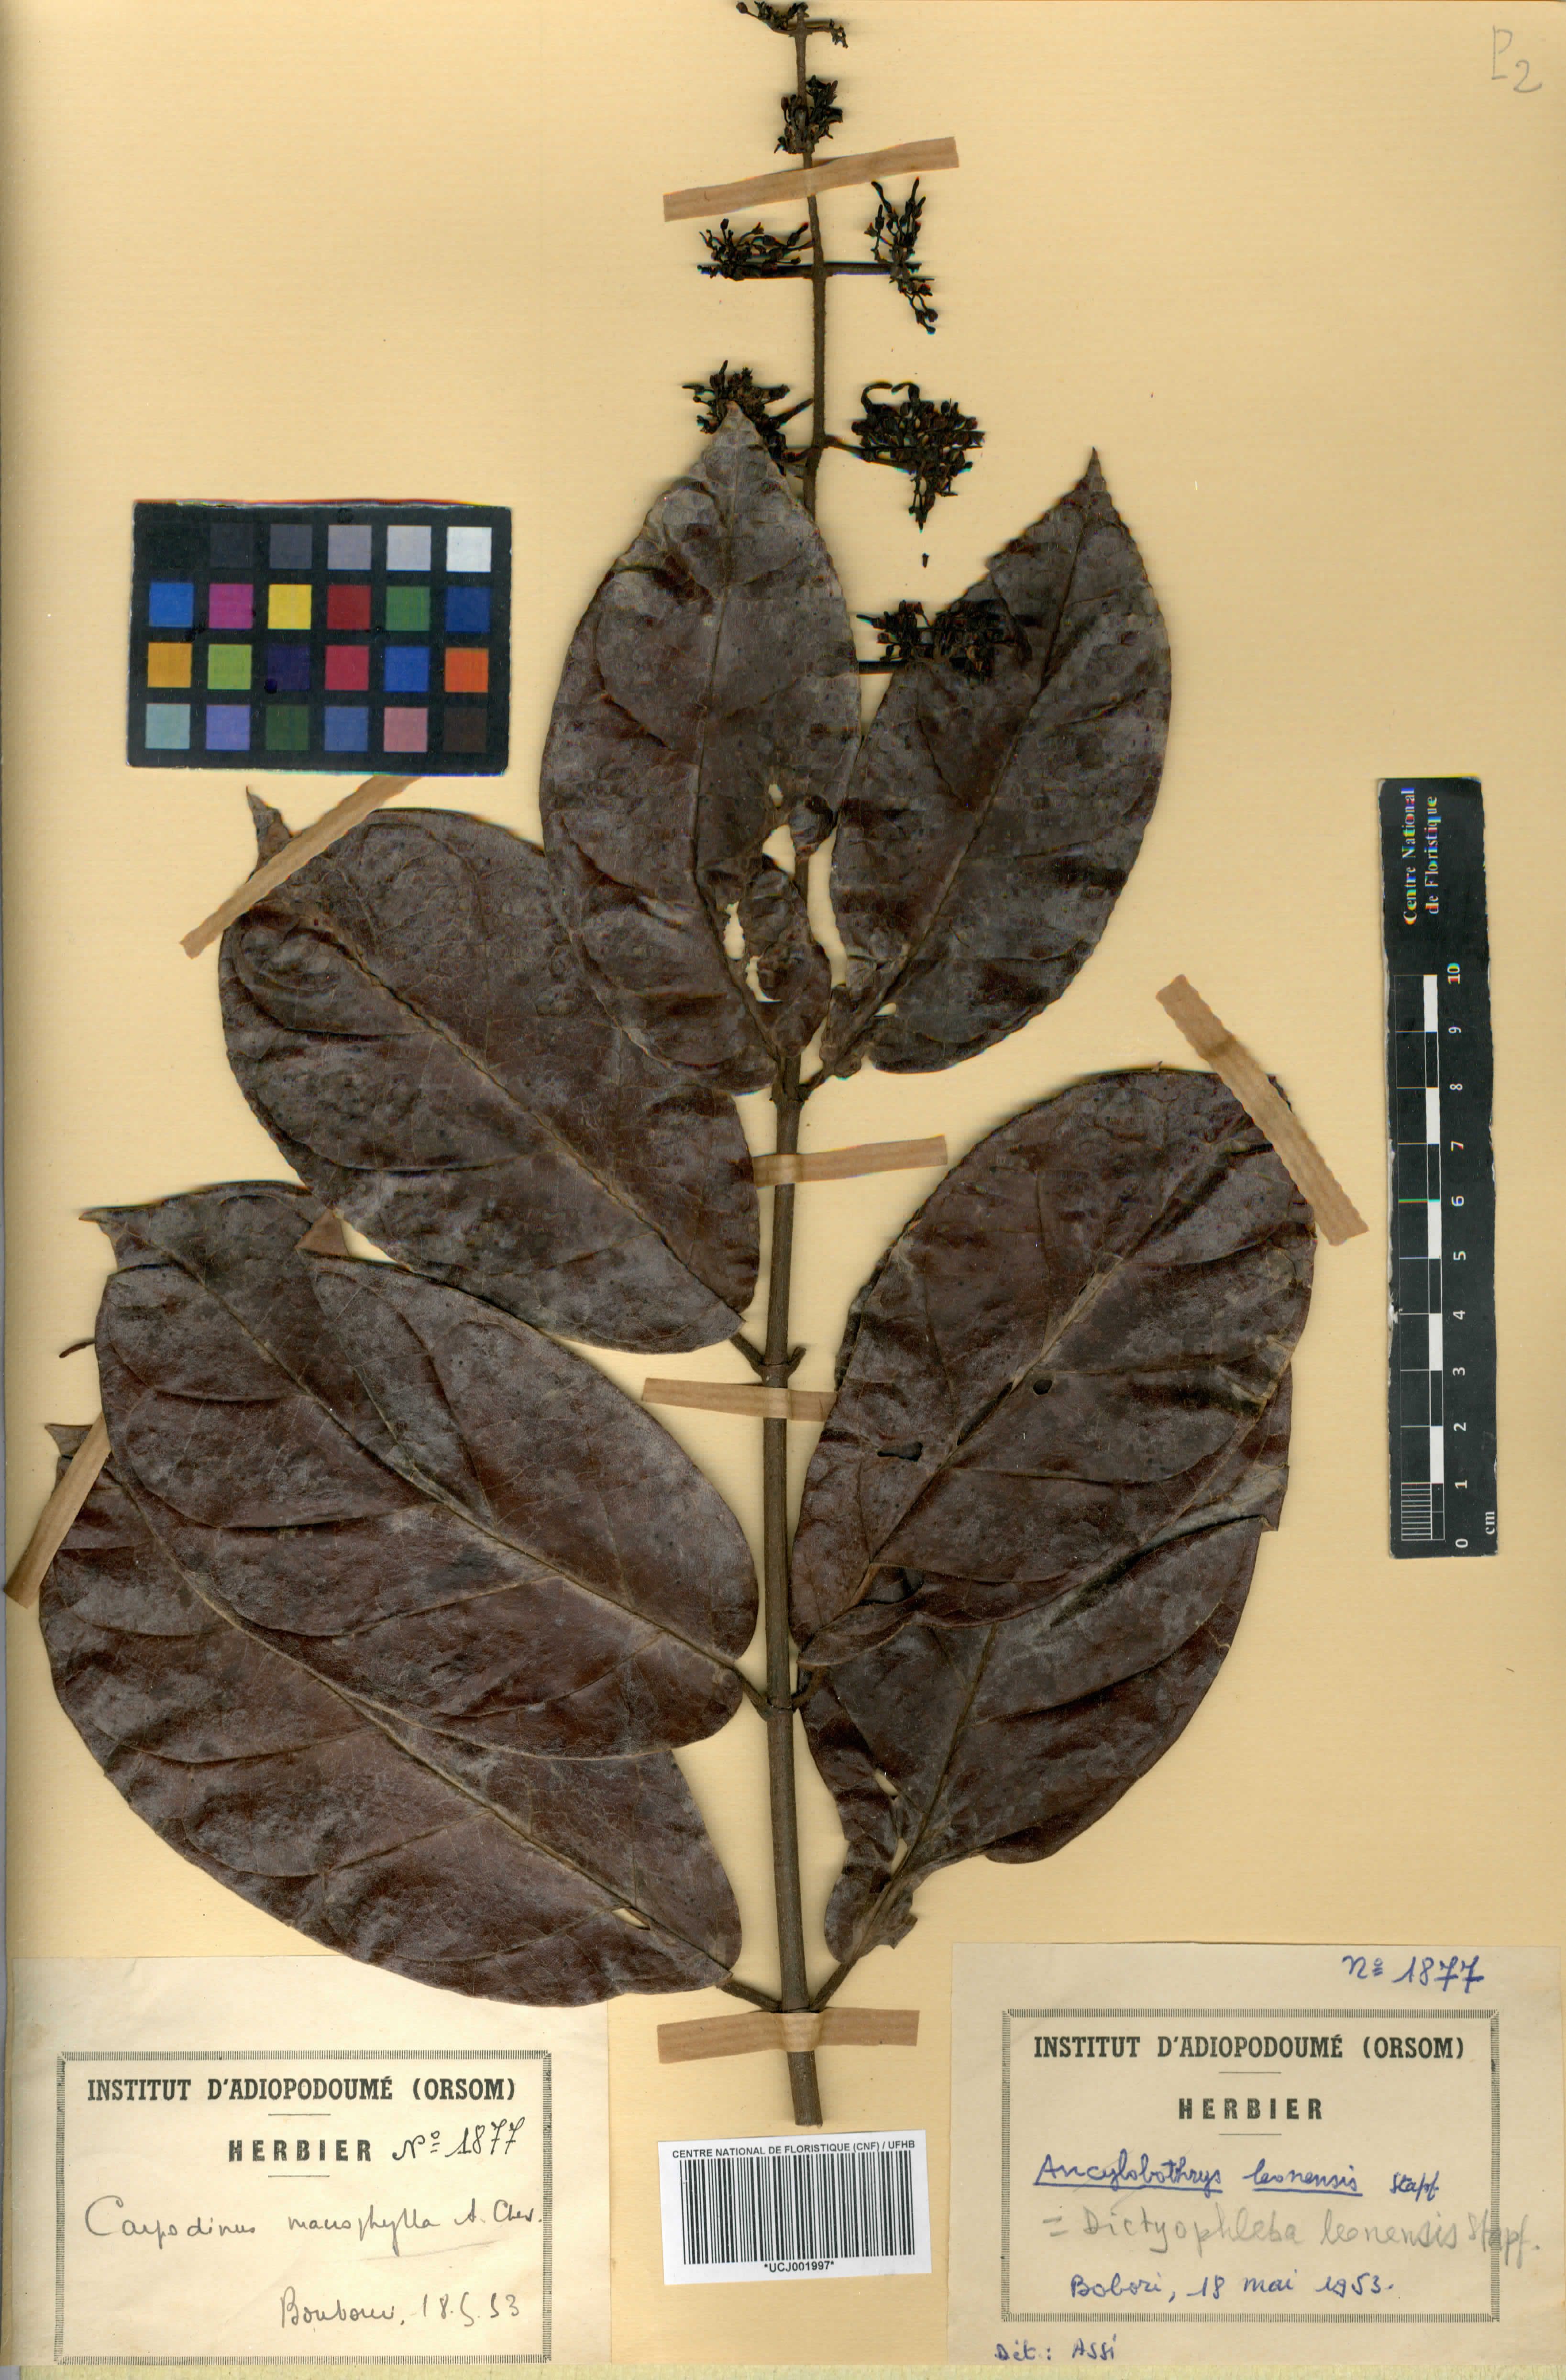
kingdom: Plantae
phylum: Tracheophyta
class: Magnoliopsida
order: Gentianales
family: Apocynaceae
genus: Dictyophleba
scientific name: Dictyophleba leonensis
